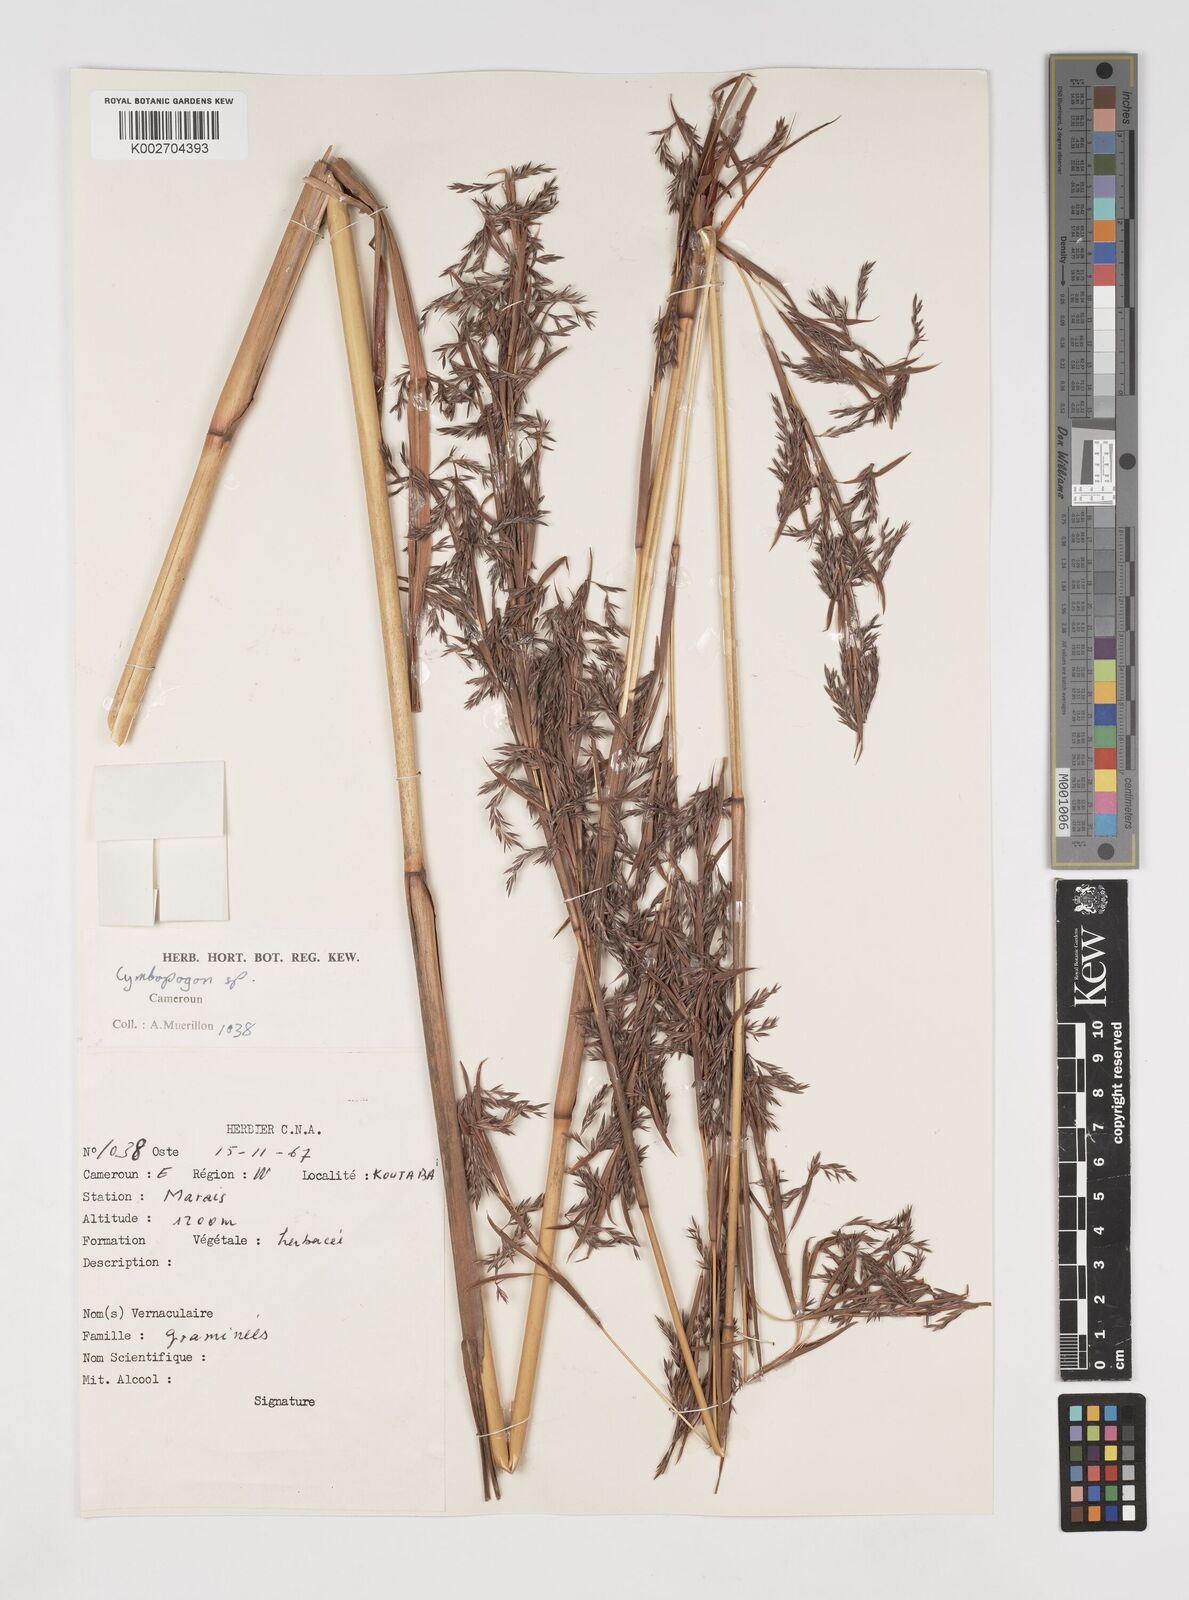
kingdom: Plantae
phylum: Tracheophyta
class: Liliopsida
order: Poales
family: Poaceae
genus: Cymbopogon
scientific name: Cymbopogon
